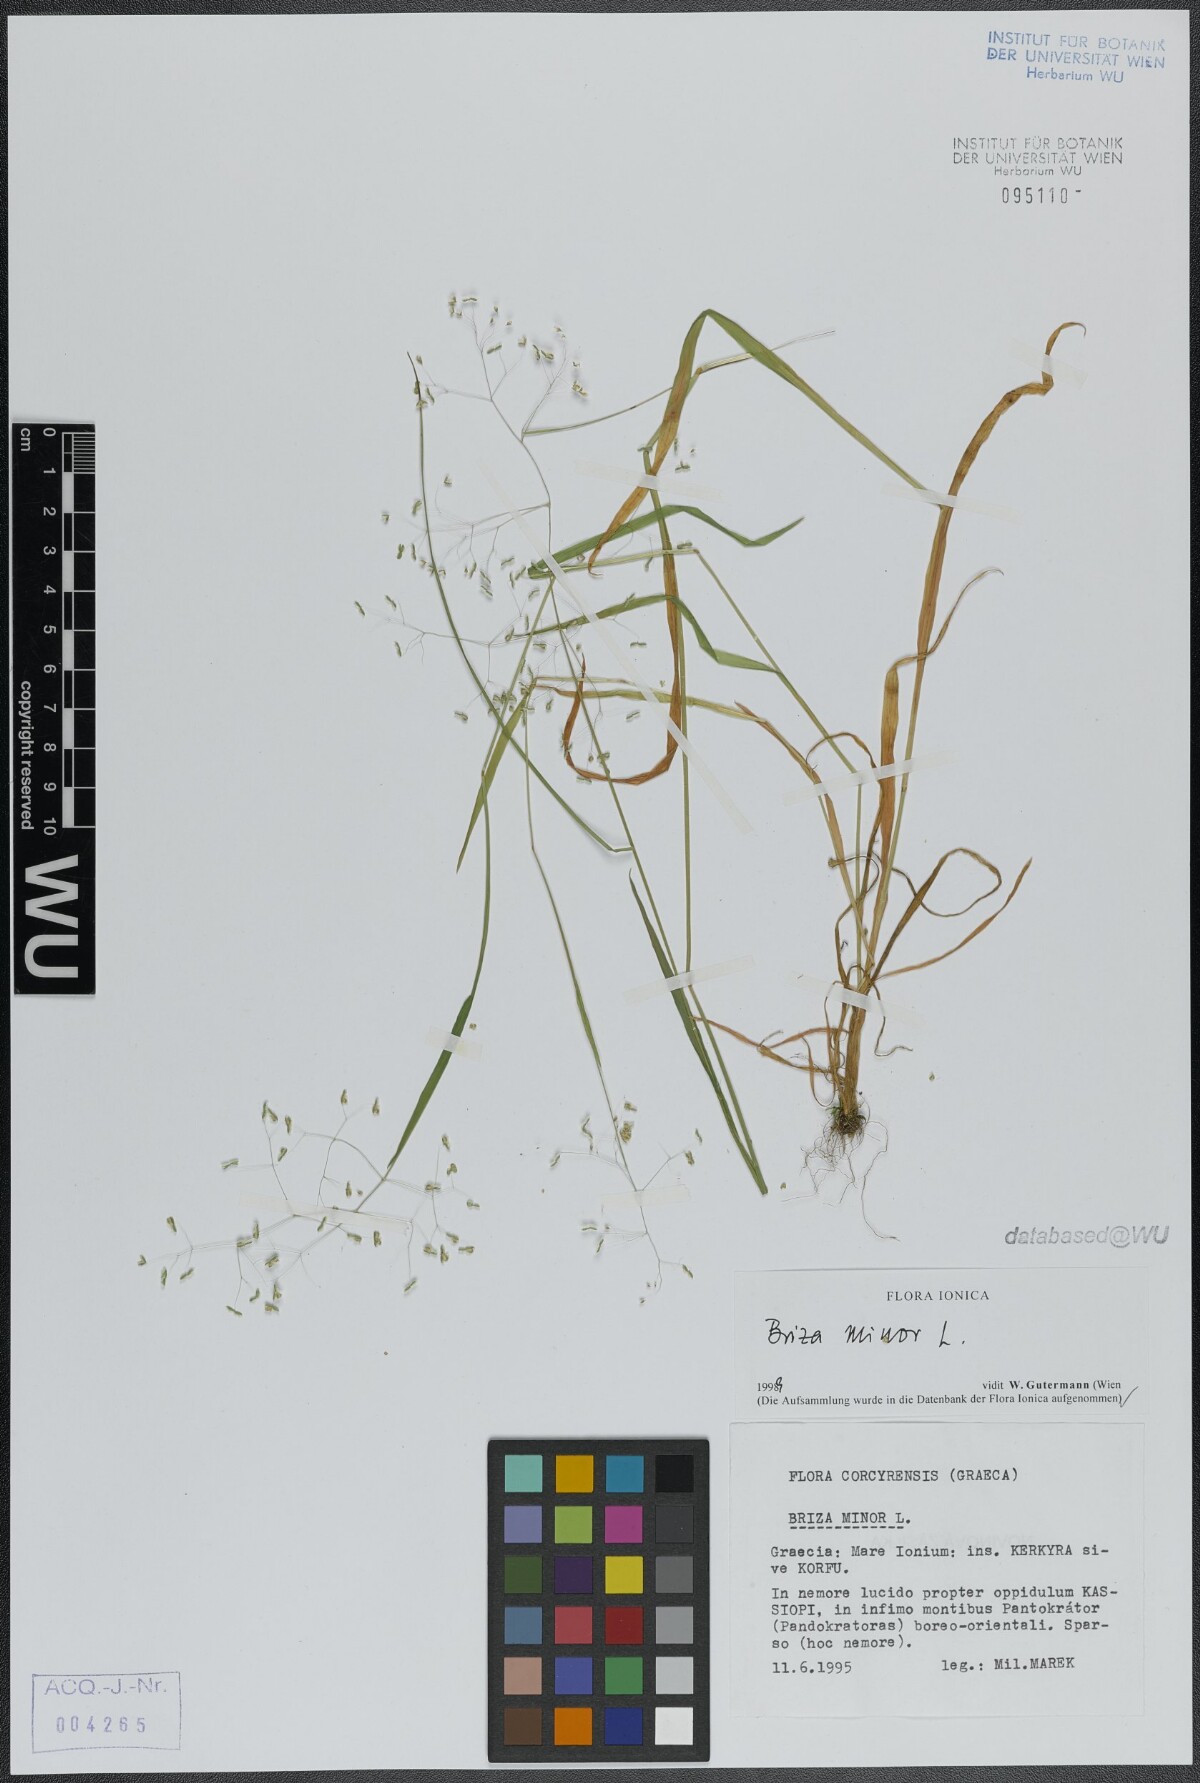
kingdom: Plantae
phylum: Tracheophyta
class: Liliopsida
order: Poales
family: Poaceae
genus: Briza
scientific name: Briza minor
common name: Lesser quaking-grass
